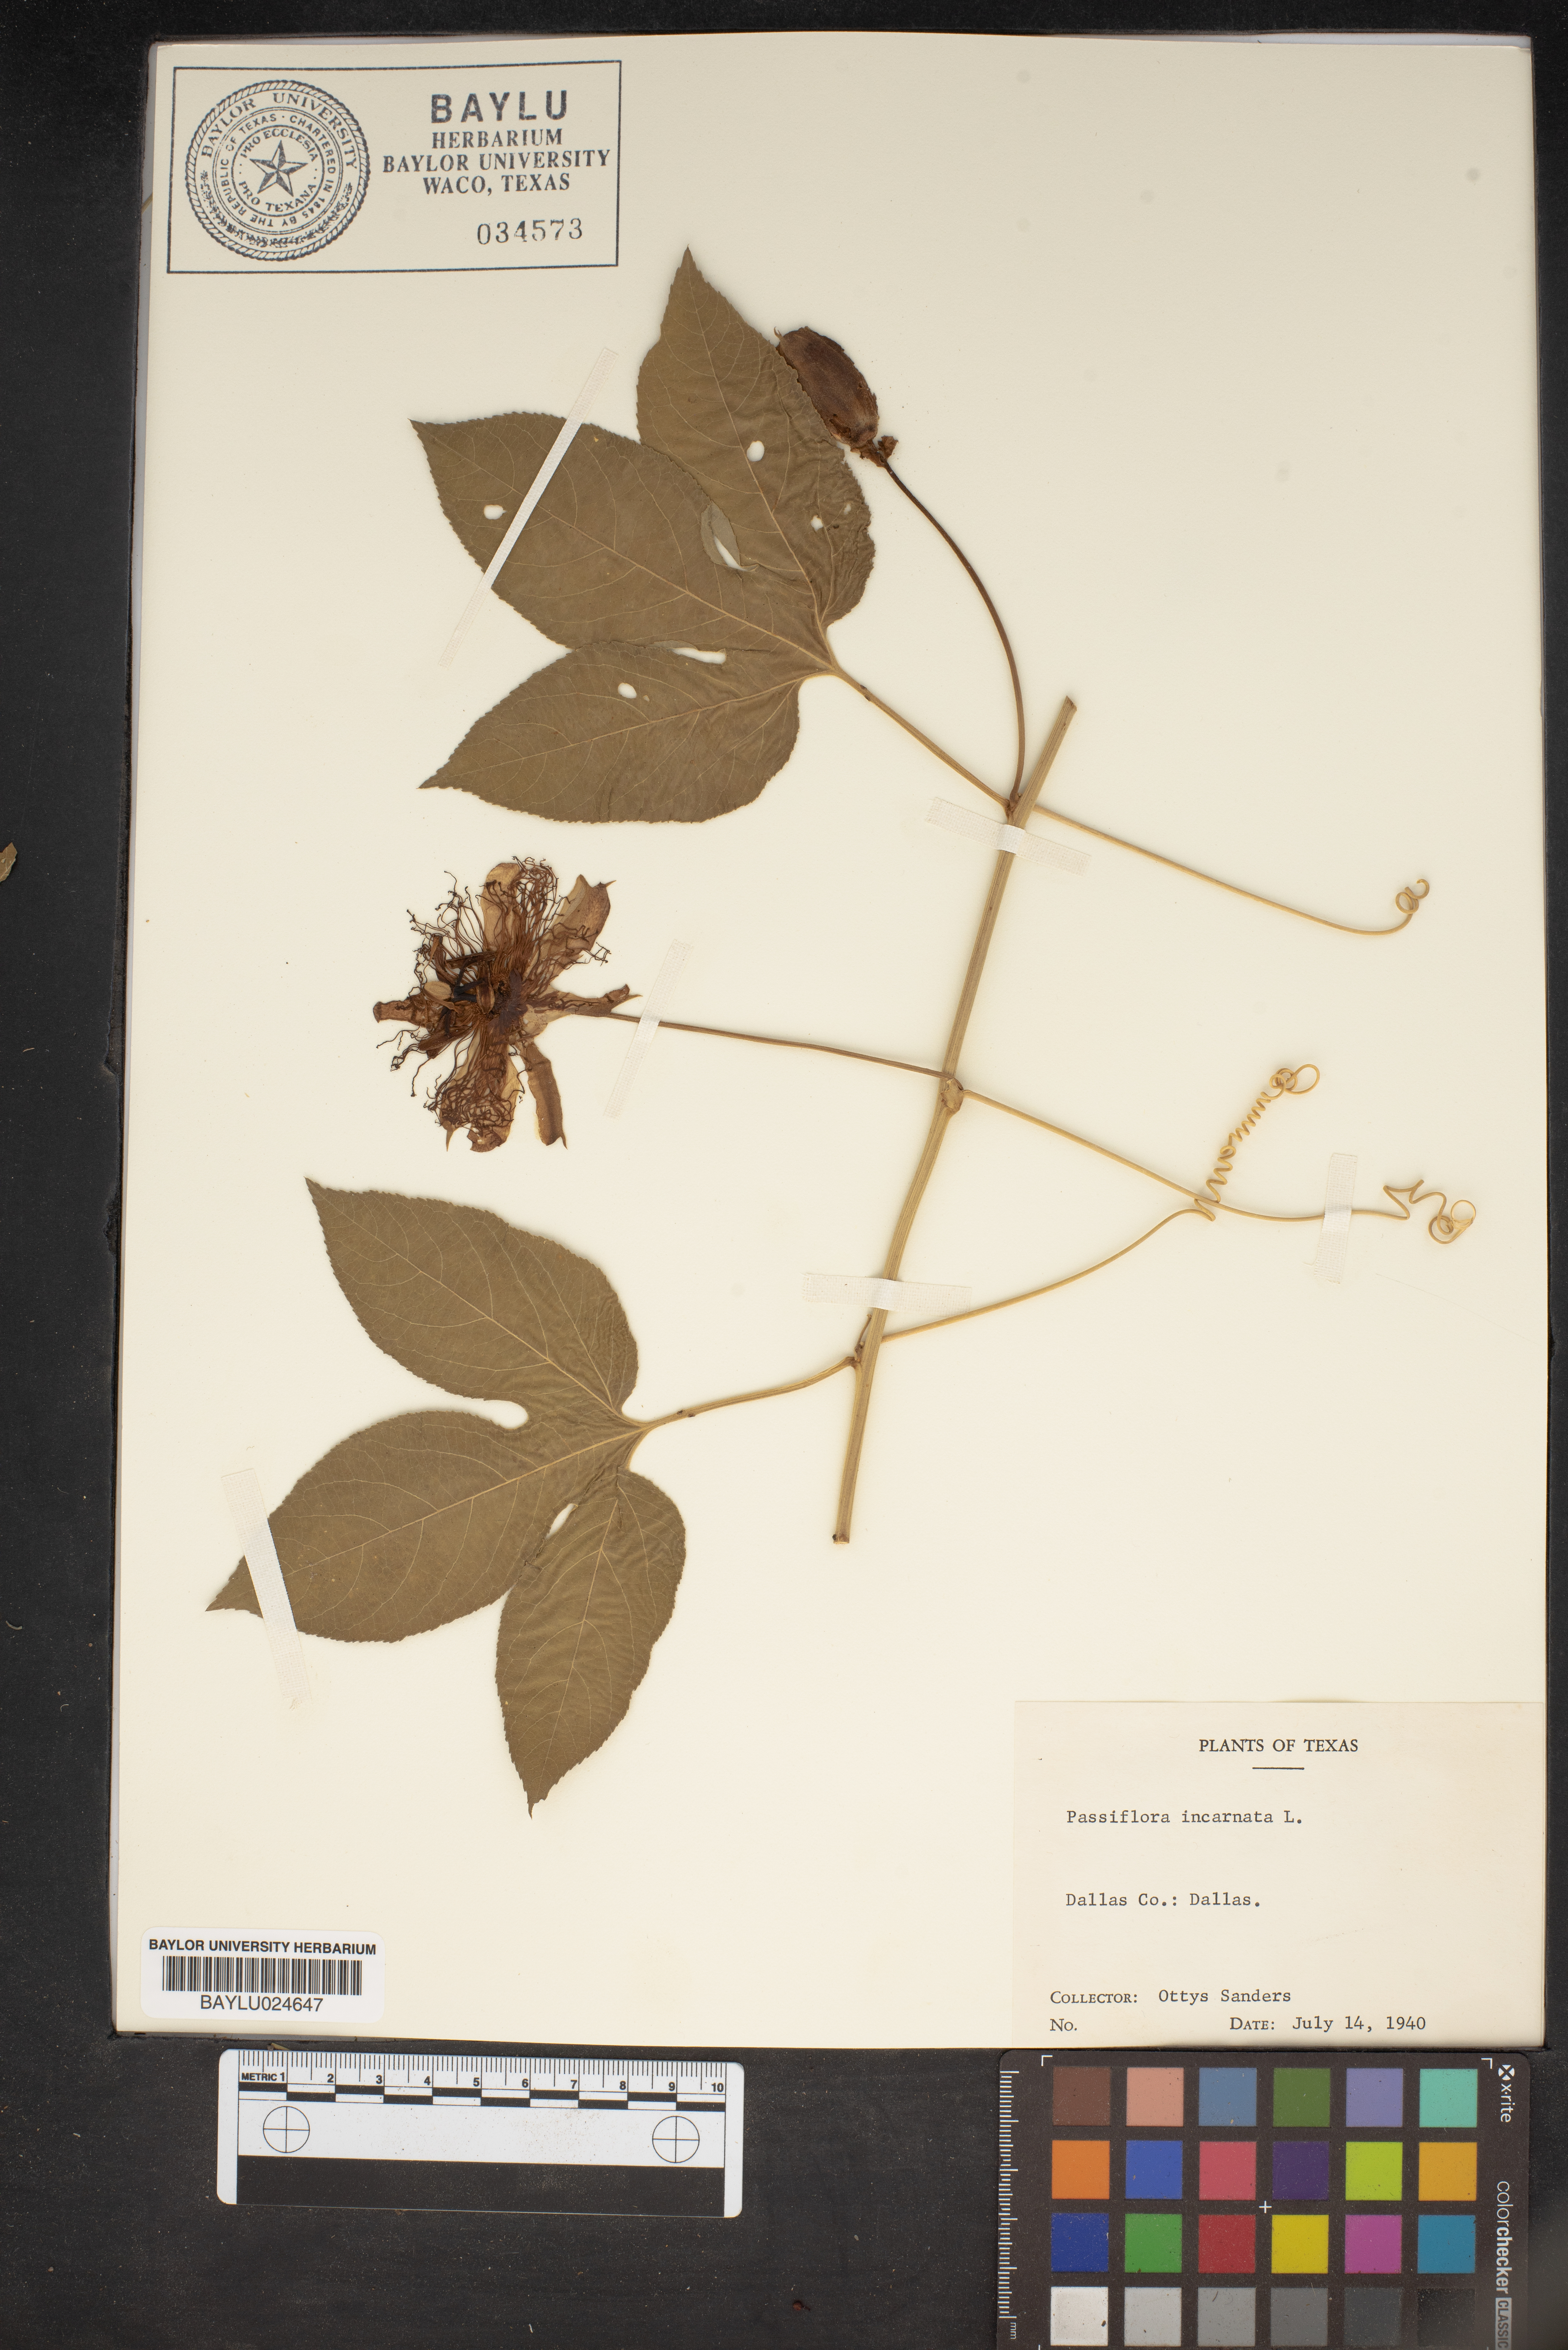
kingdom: Plantae
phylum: Tracheophyta
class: Magnoliopsida
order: Malpighiales
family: Passifloraceae
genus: Passiflora
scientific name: Passiflora incarnata
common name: Apricot-vine
